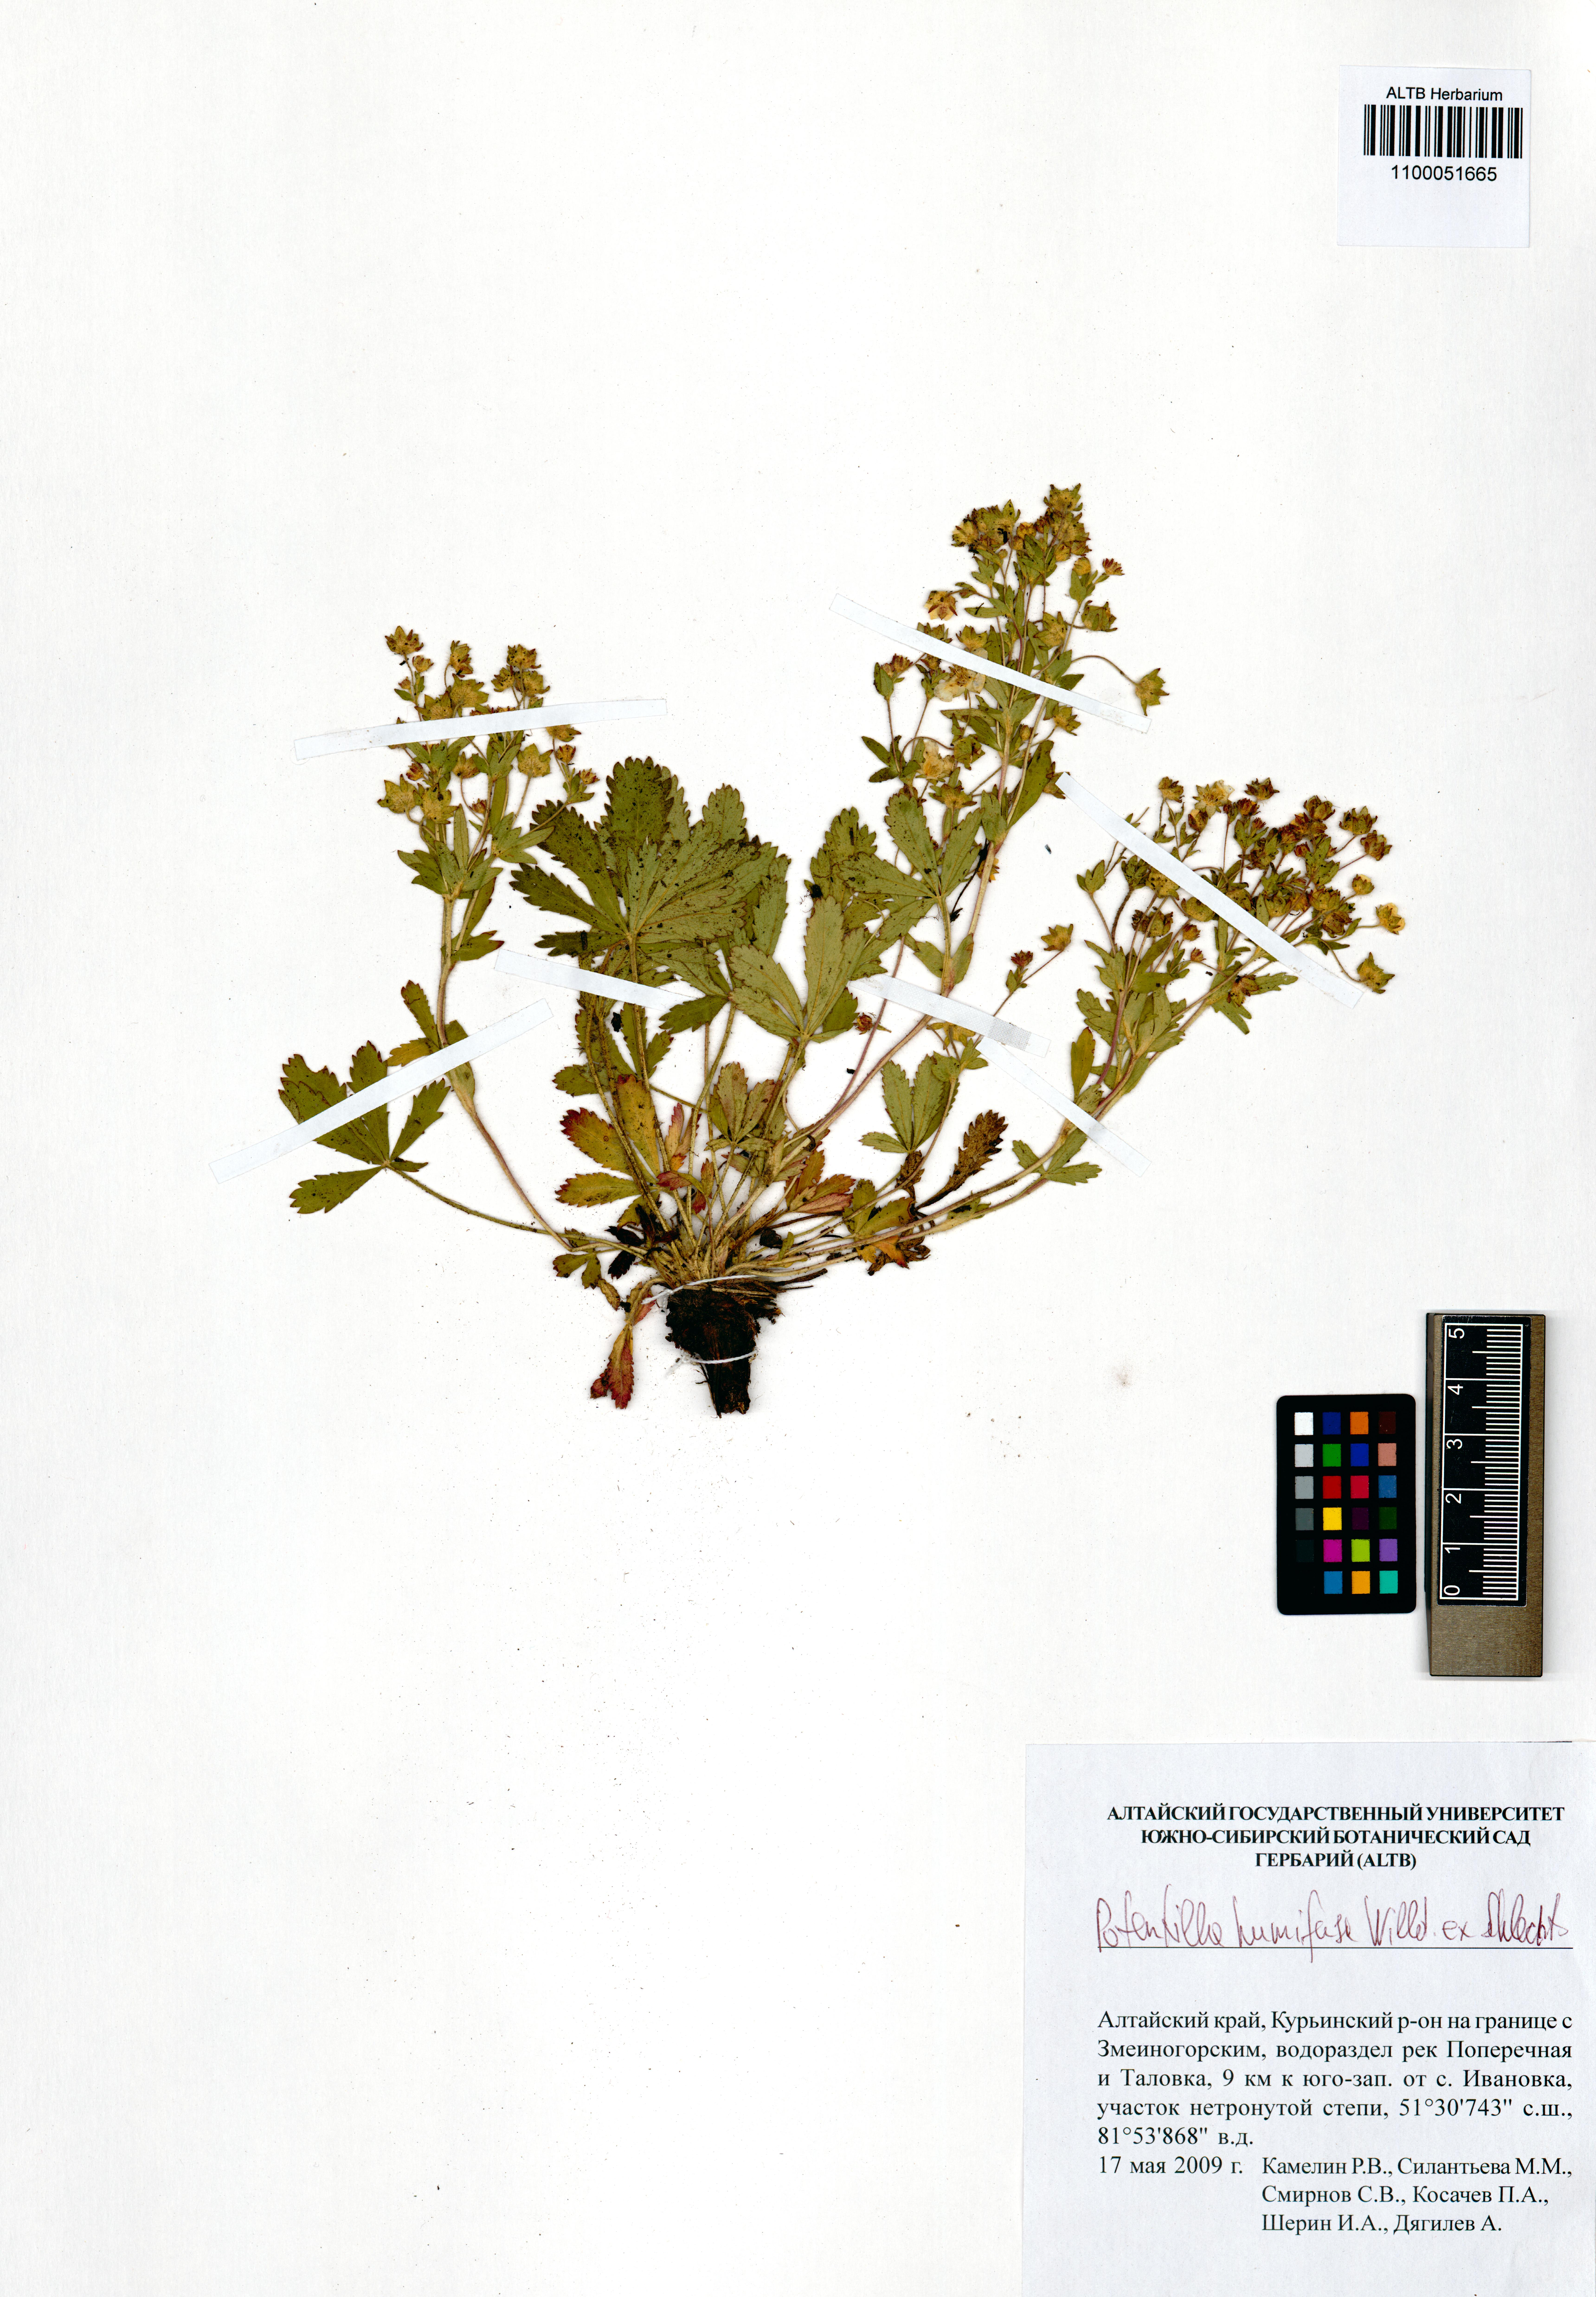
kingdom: Plantae
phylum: Tracheophyta
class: Magnoliopsida
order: Rosales
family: Rosaceae
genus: Potentilla
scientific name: Potentilla humifusa
